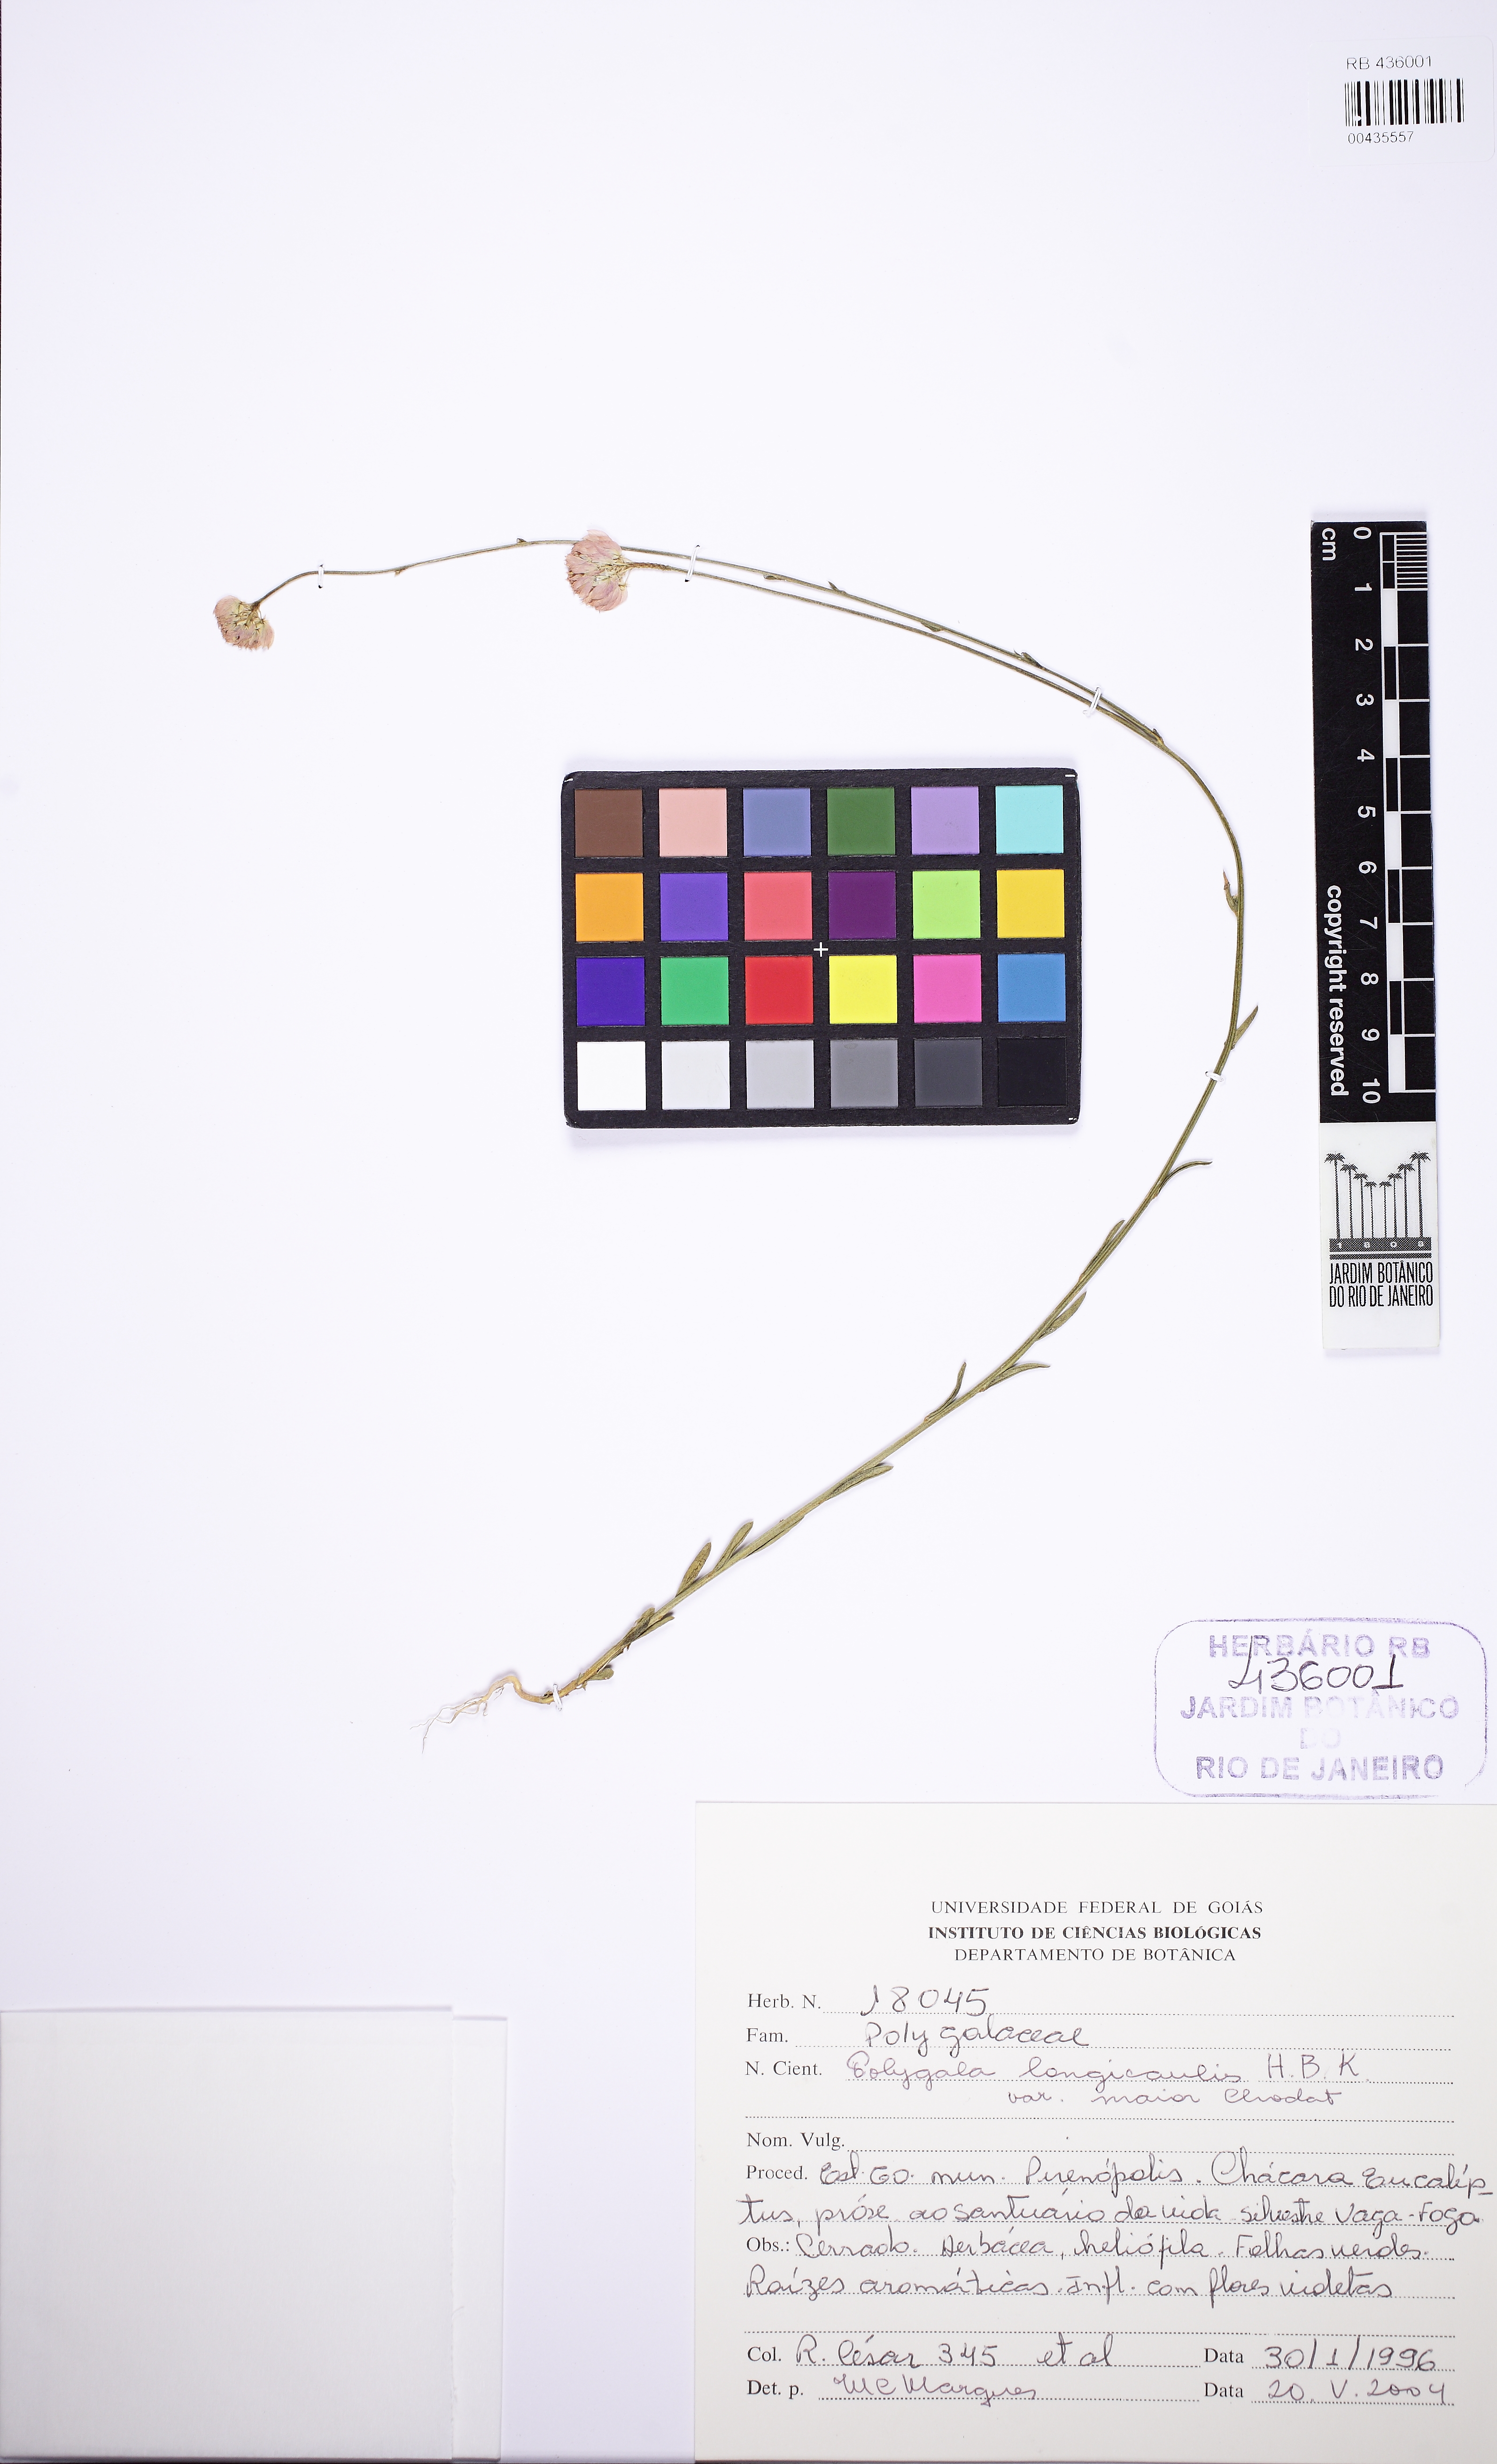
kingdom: Plantae
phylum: Tracheophyta
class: Magnoliopsida
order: Fabales
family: Polygalaceae
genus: Polygala
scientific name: Polygala longicaulis
